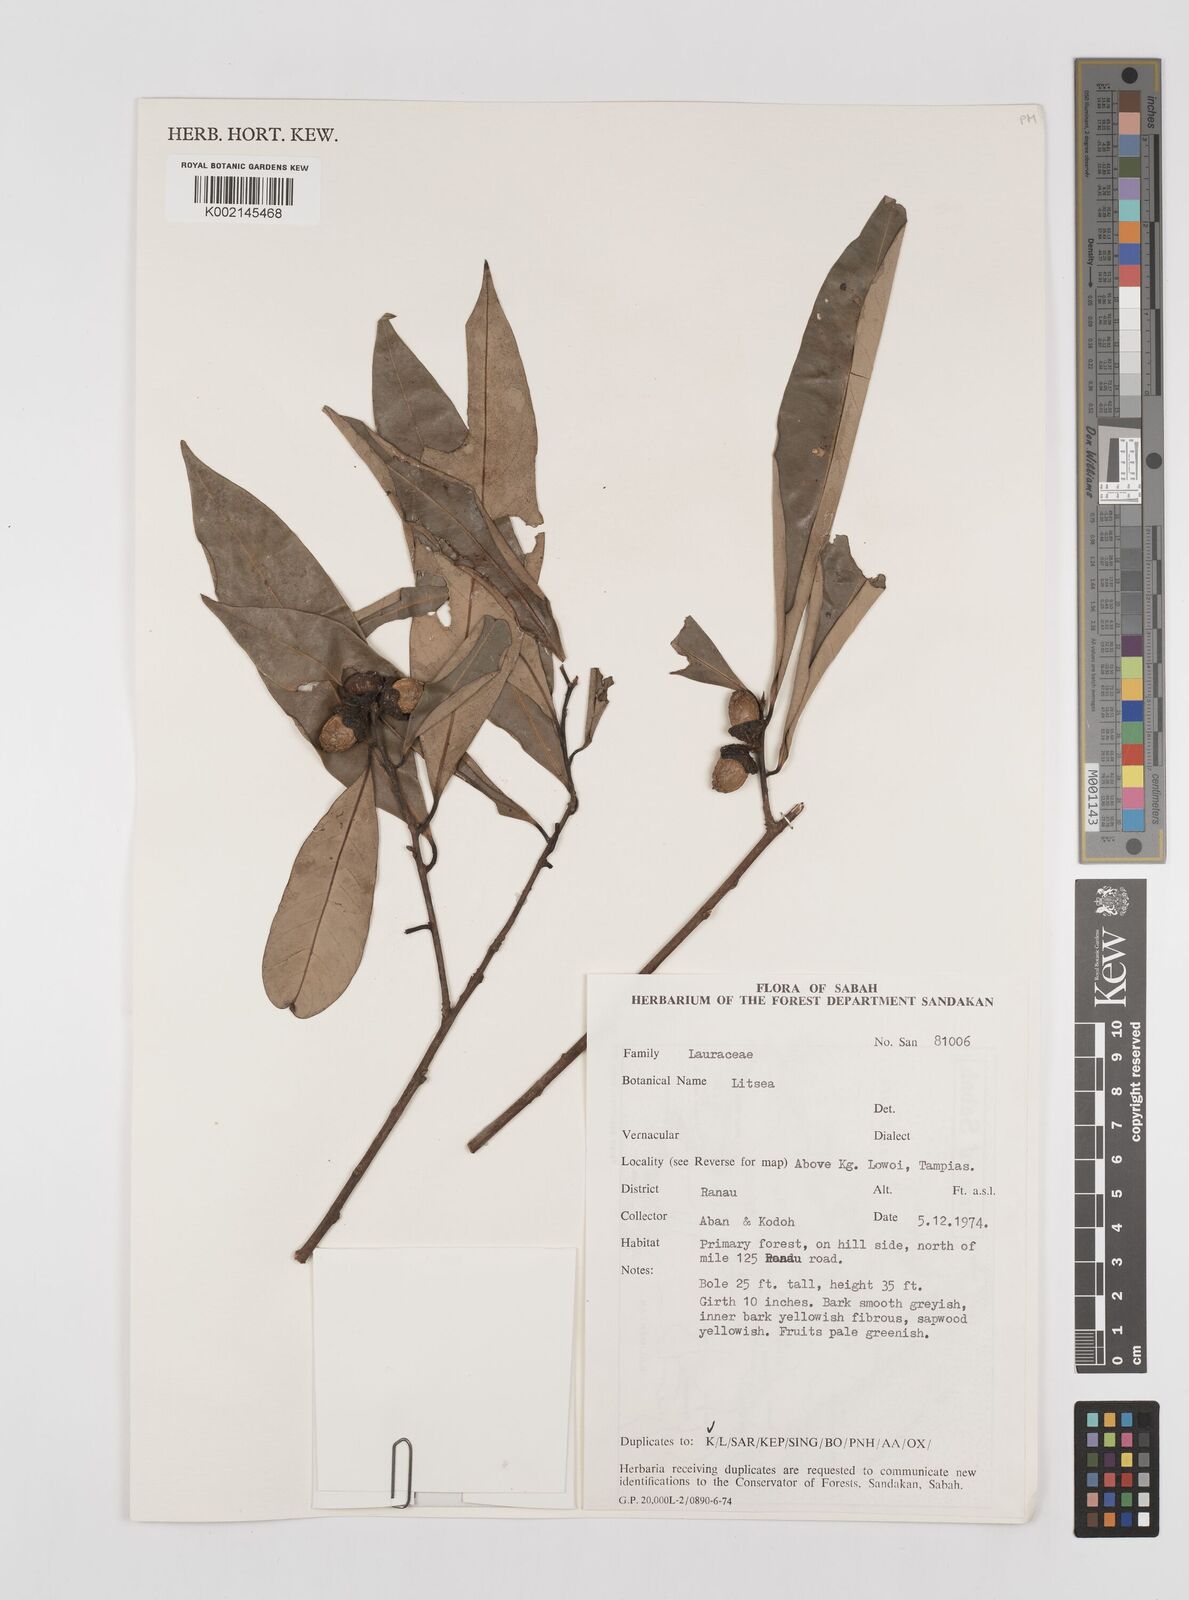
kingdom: Plantae
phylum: Tracheophyta
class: Magnoliopsida
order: Laurales
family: Lauraceae
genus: Litsea
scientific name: Litsea
